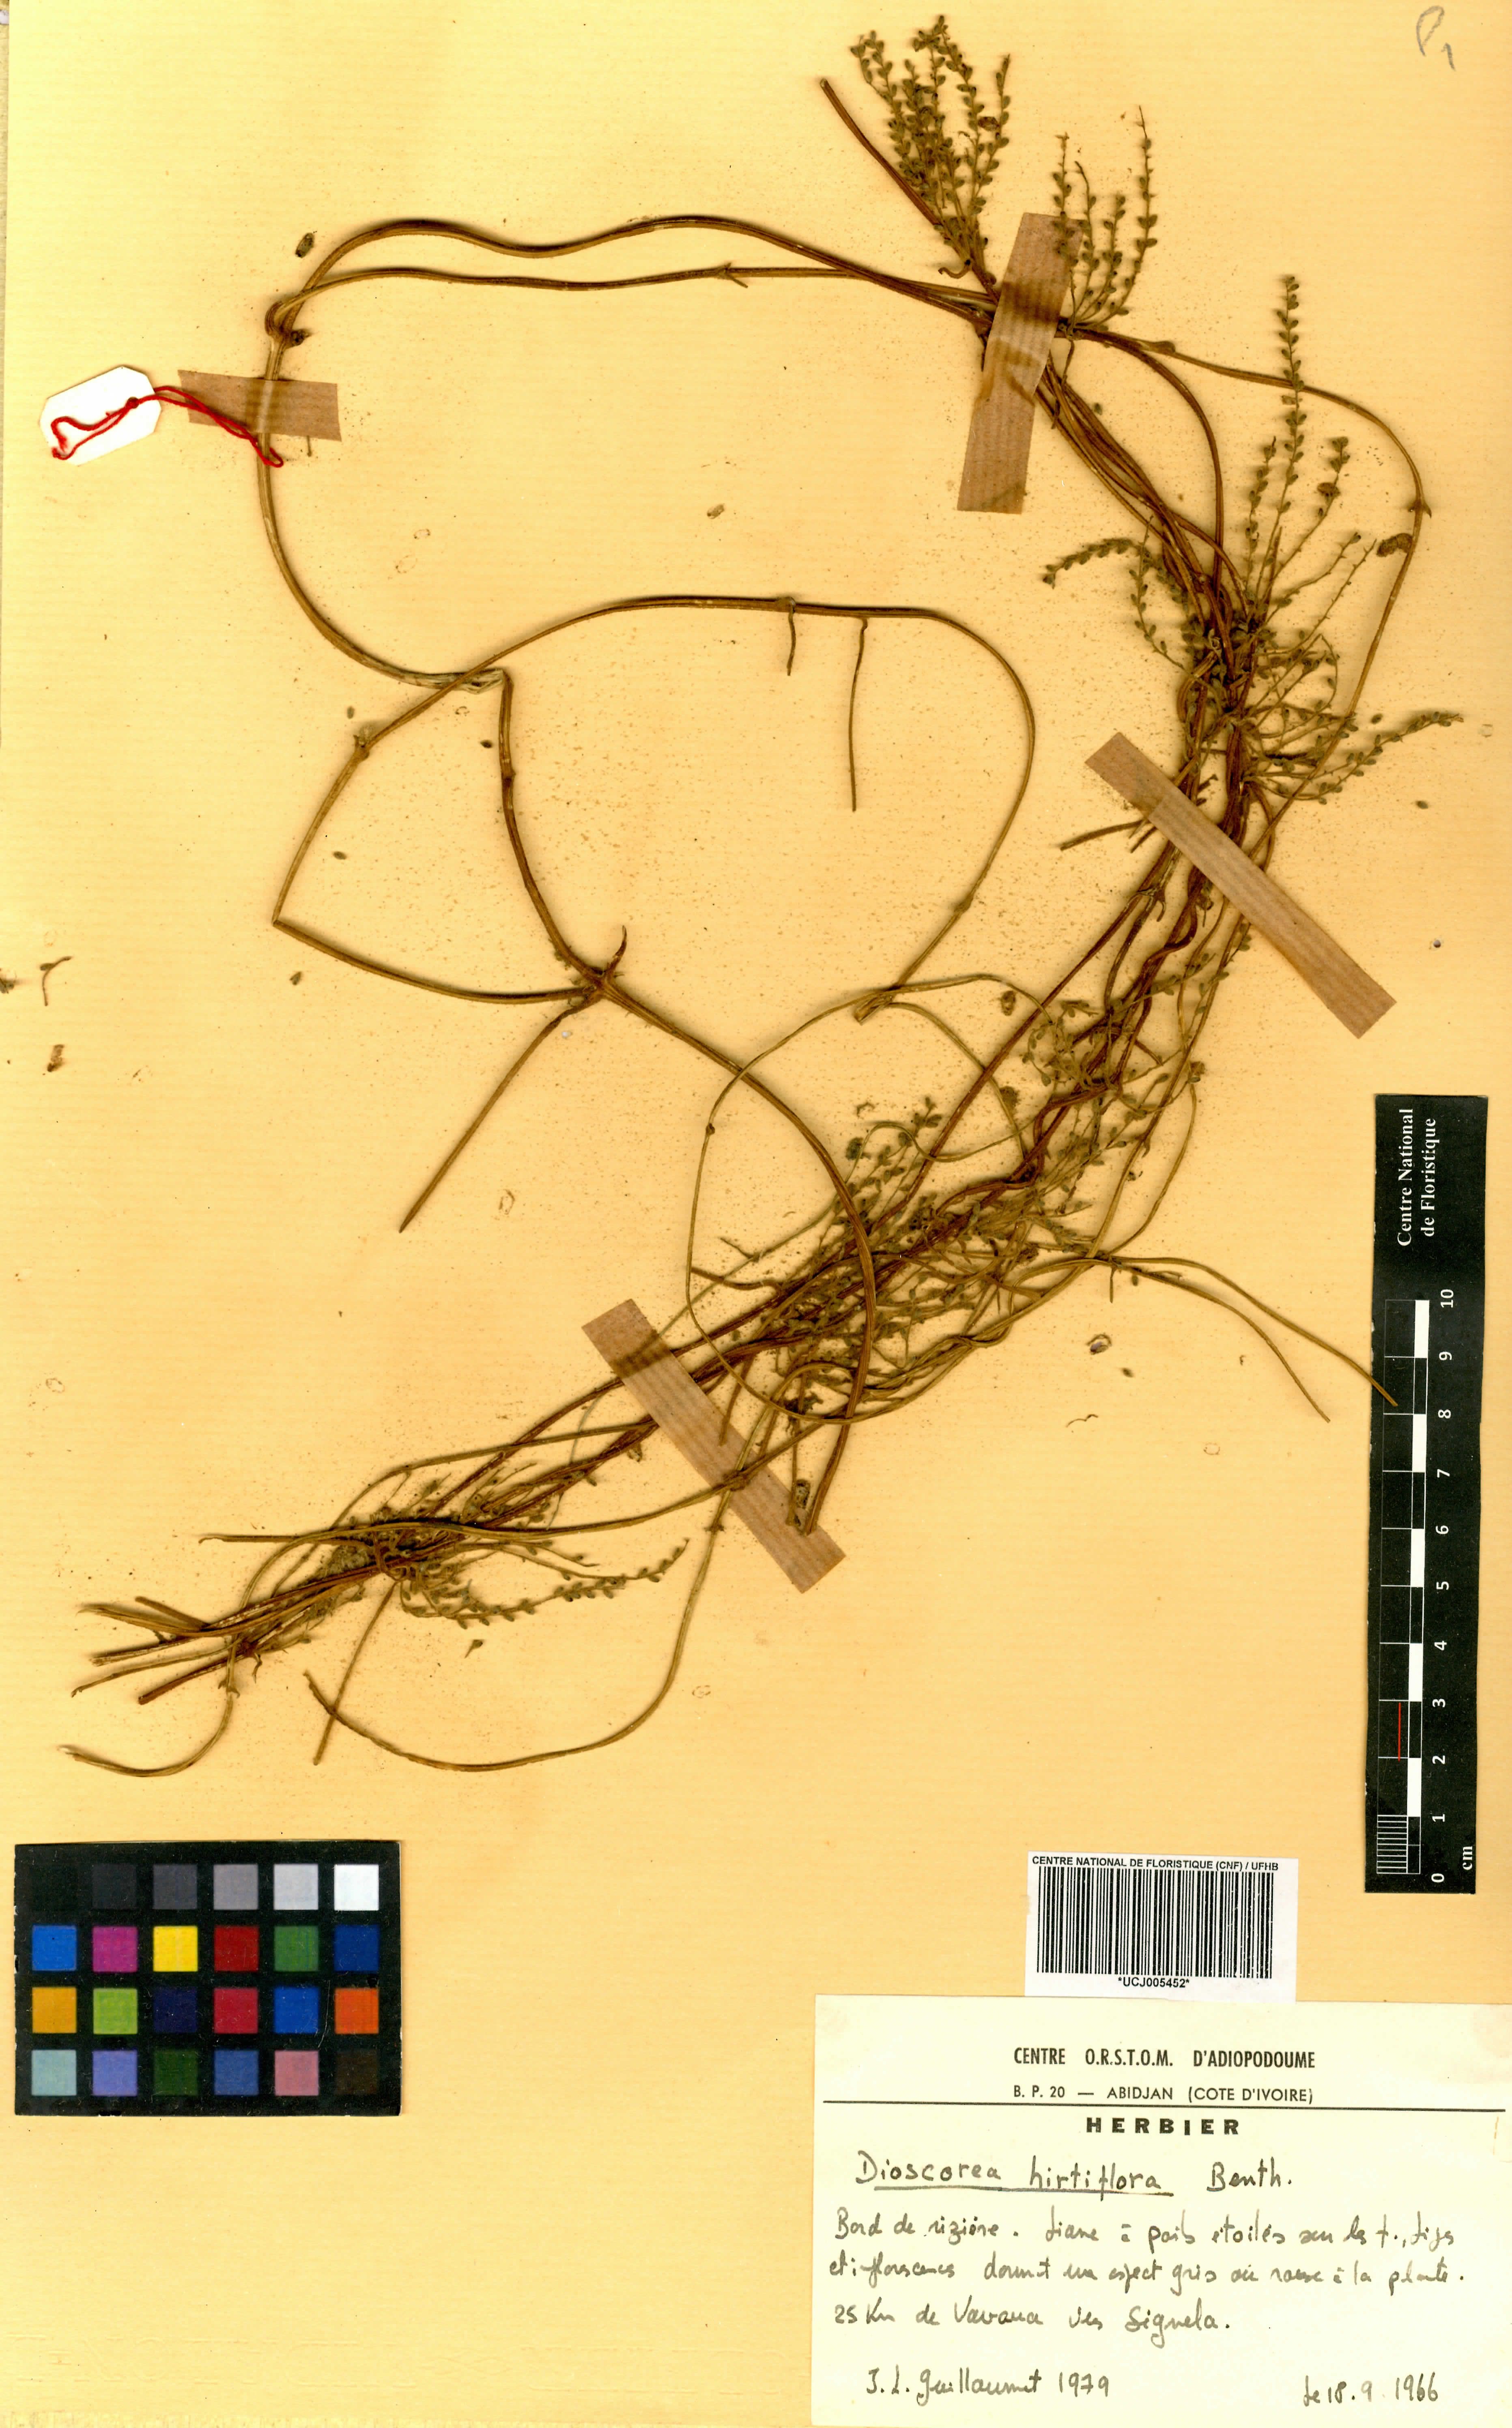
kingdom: Plantae
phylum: Tracheophyta
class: Liliopsida
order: Dioscoreales
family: Dioscoreaceae
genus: Dioscorea
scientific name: Dioscorea hirtiflora
